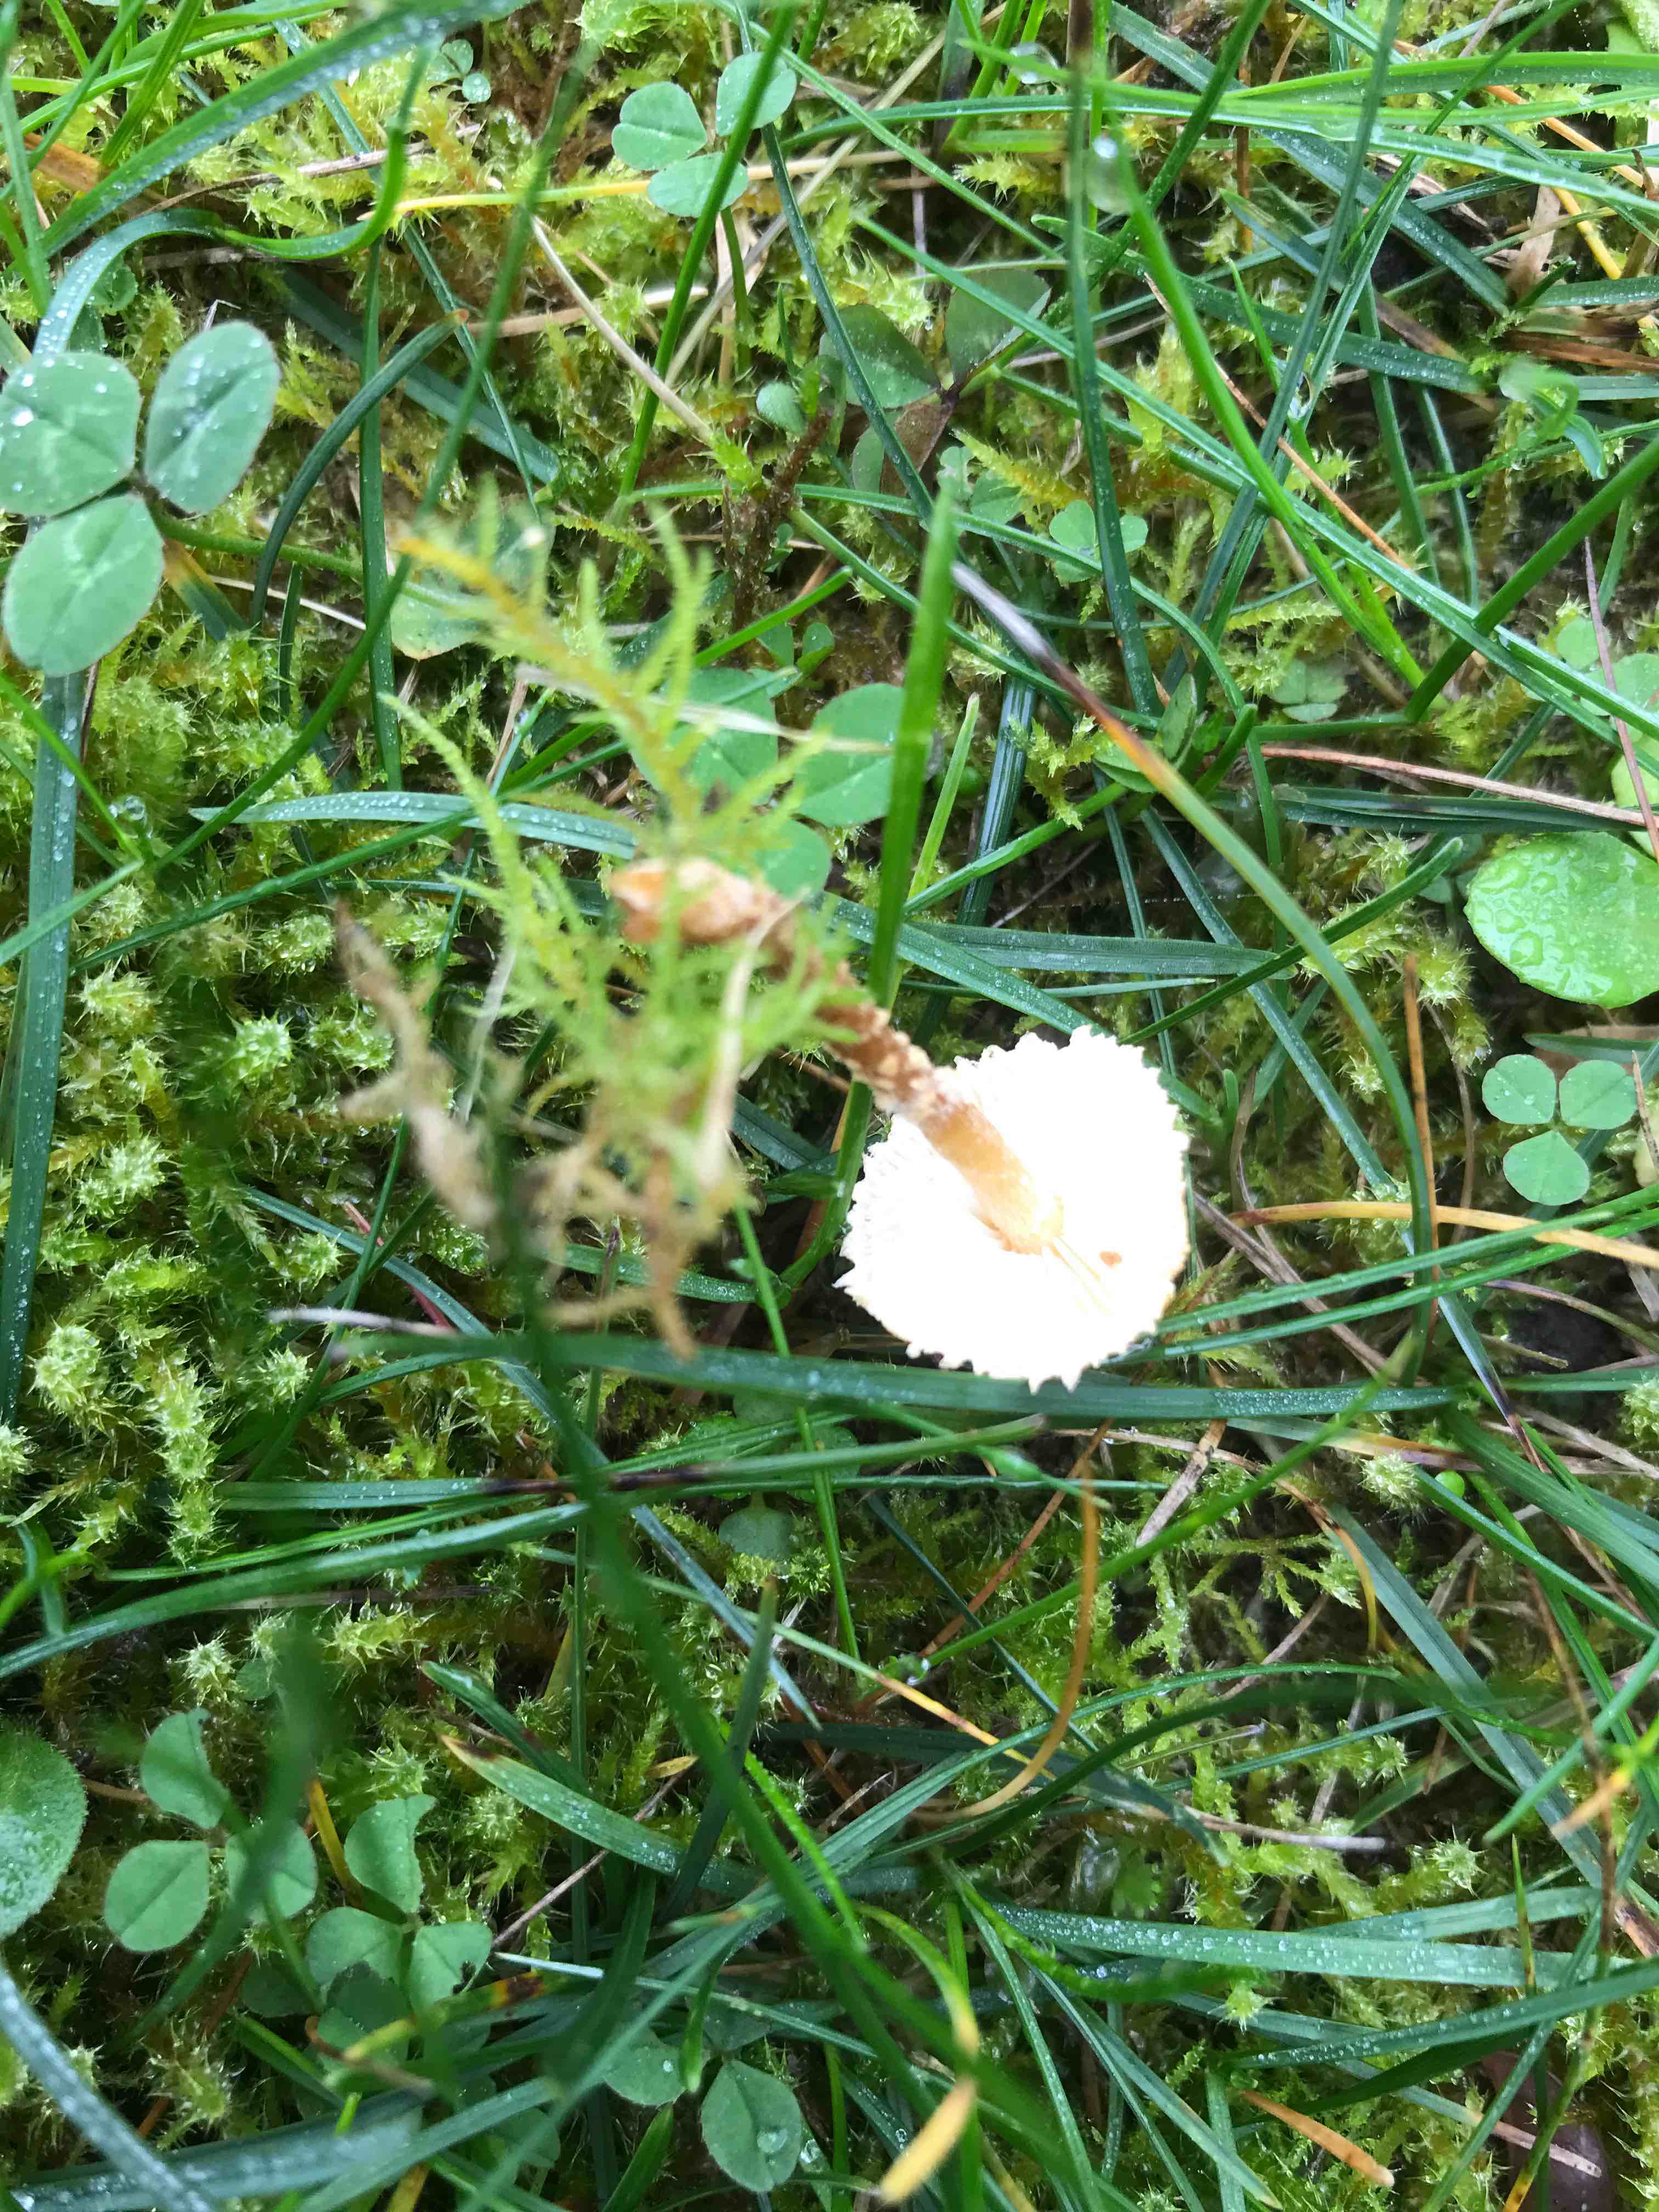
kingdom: Fungi
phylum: Basidiomycota
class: Agaricomycetes
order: Agaricales
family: Tricholomataceae
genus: Cystoderma
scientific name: Cystoderma amianthinum
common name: okkergul grynhat
